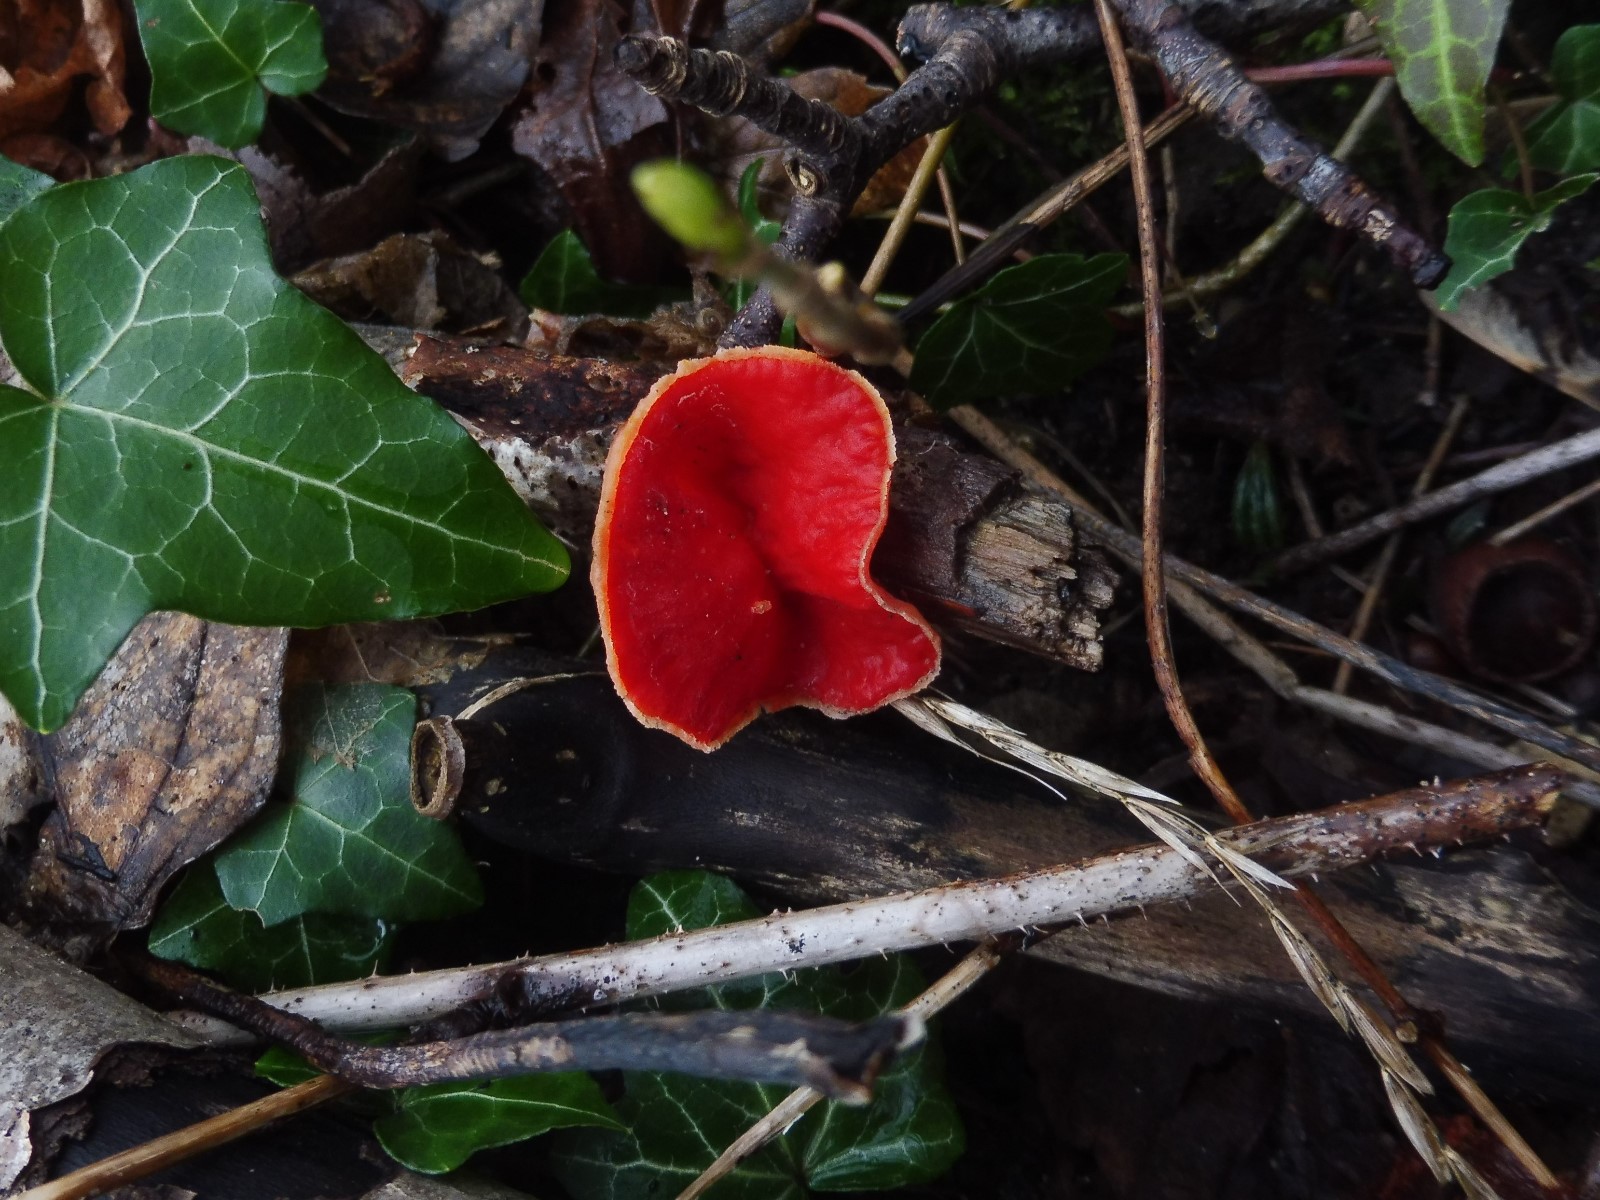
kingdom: Fungi
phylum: Ascomycota
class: Pezizomycetes
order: Pezizales
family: Sarcoscyphaceae
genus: Sarcoscypha
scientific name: Sarcoscypha austriaca
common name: krølhåret pragtbæger
